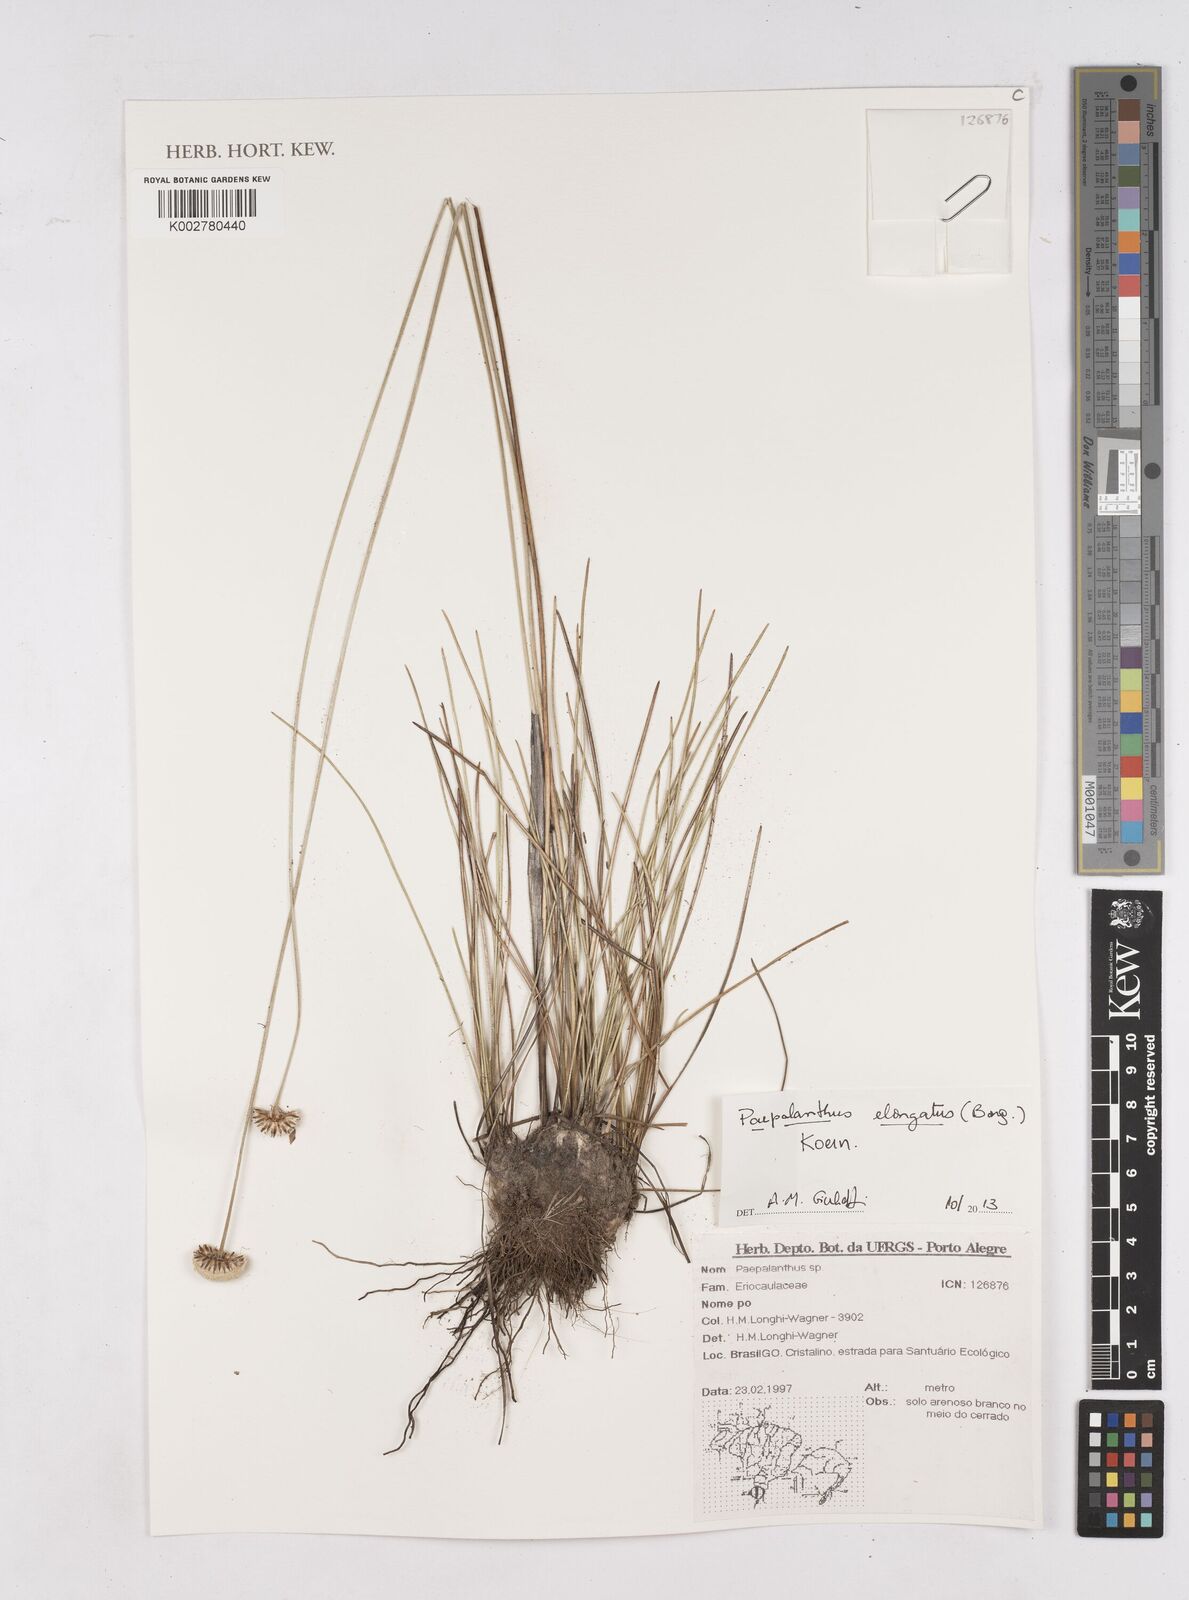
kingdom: Plantae
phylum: Tracheophyta
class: Liliopsida
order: Poales
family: Eriocaulaceae
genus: Paepalanthus
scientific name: Paepalanthus elongatus
